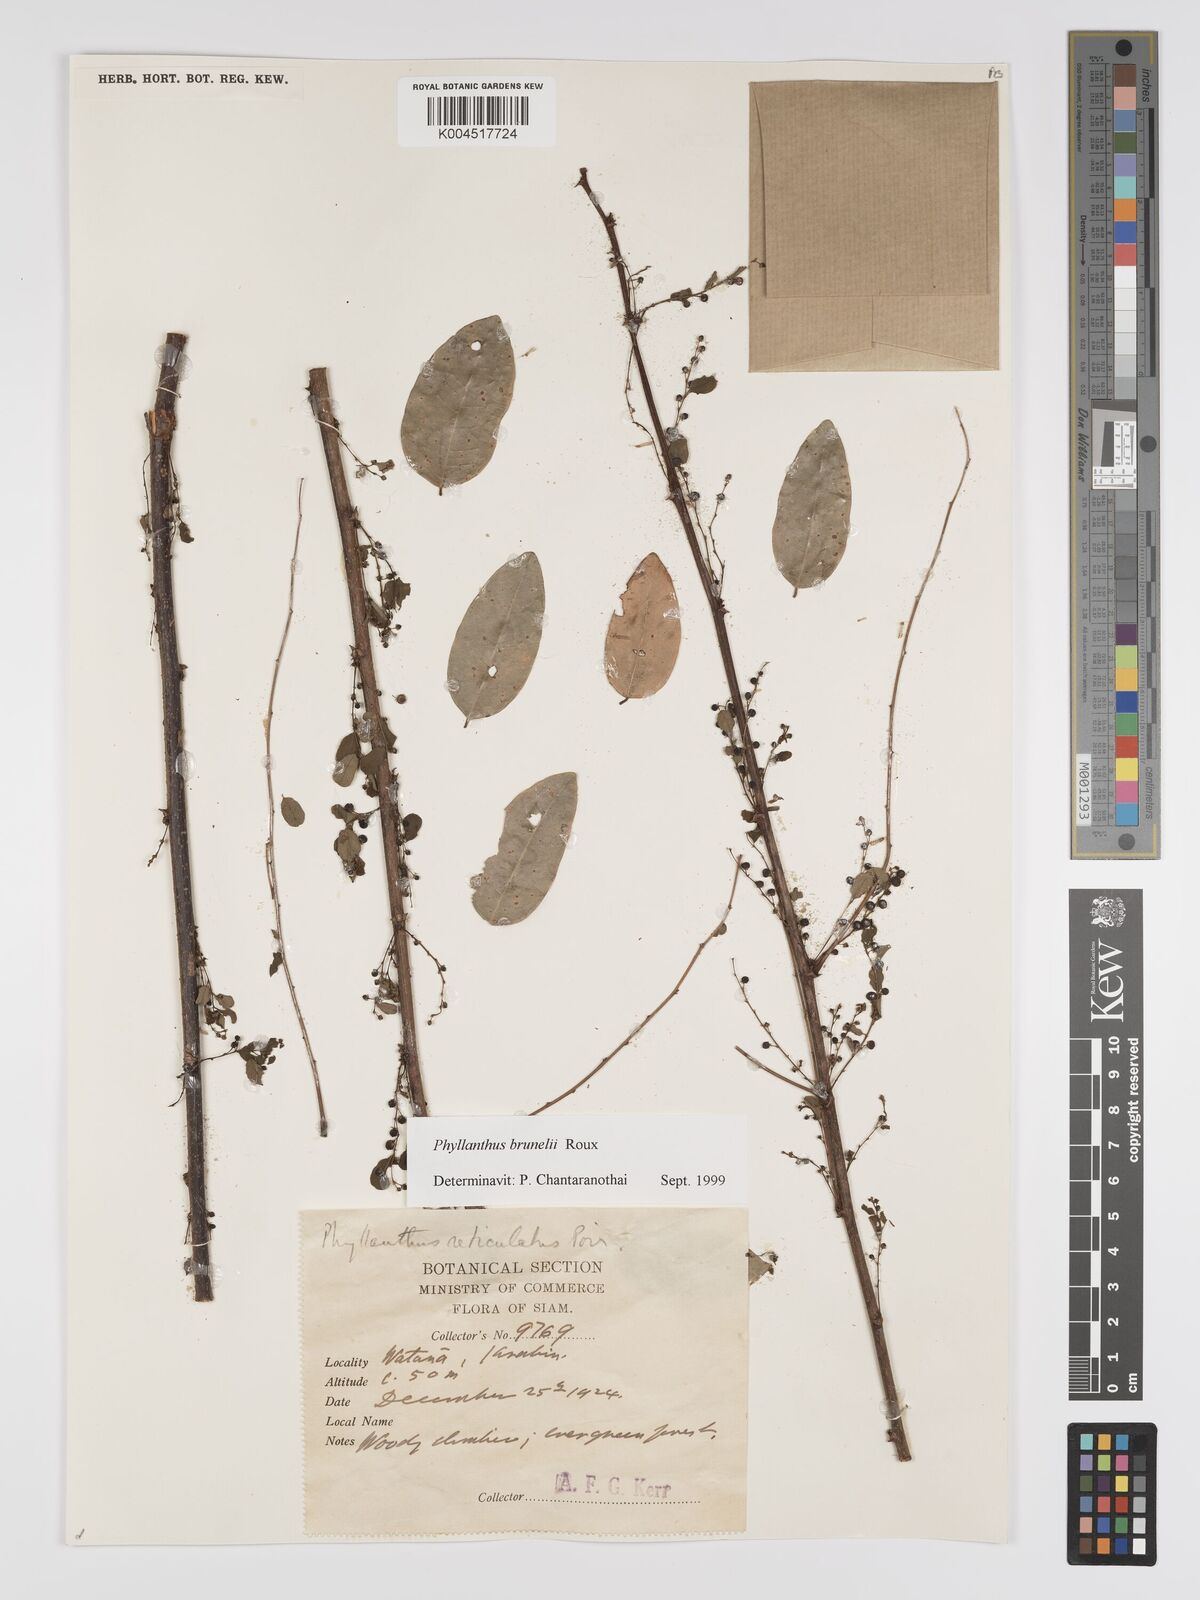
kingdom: Plantae
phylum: Tracheophyta
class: Magnoliopsida
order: Malpighiales
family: Phyllanthaceae
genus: Phyllanthus
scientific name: Phyllanthus microcarpus
